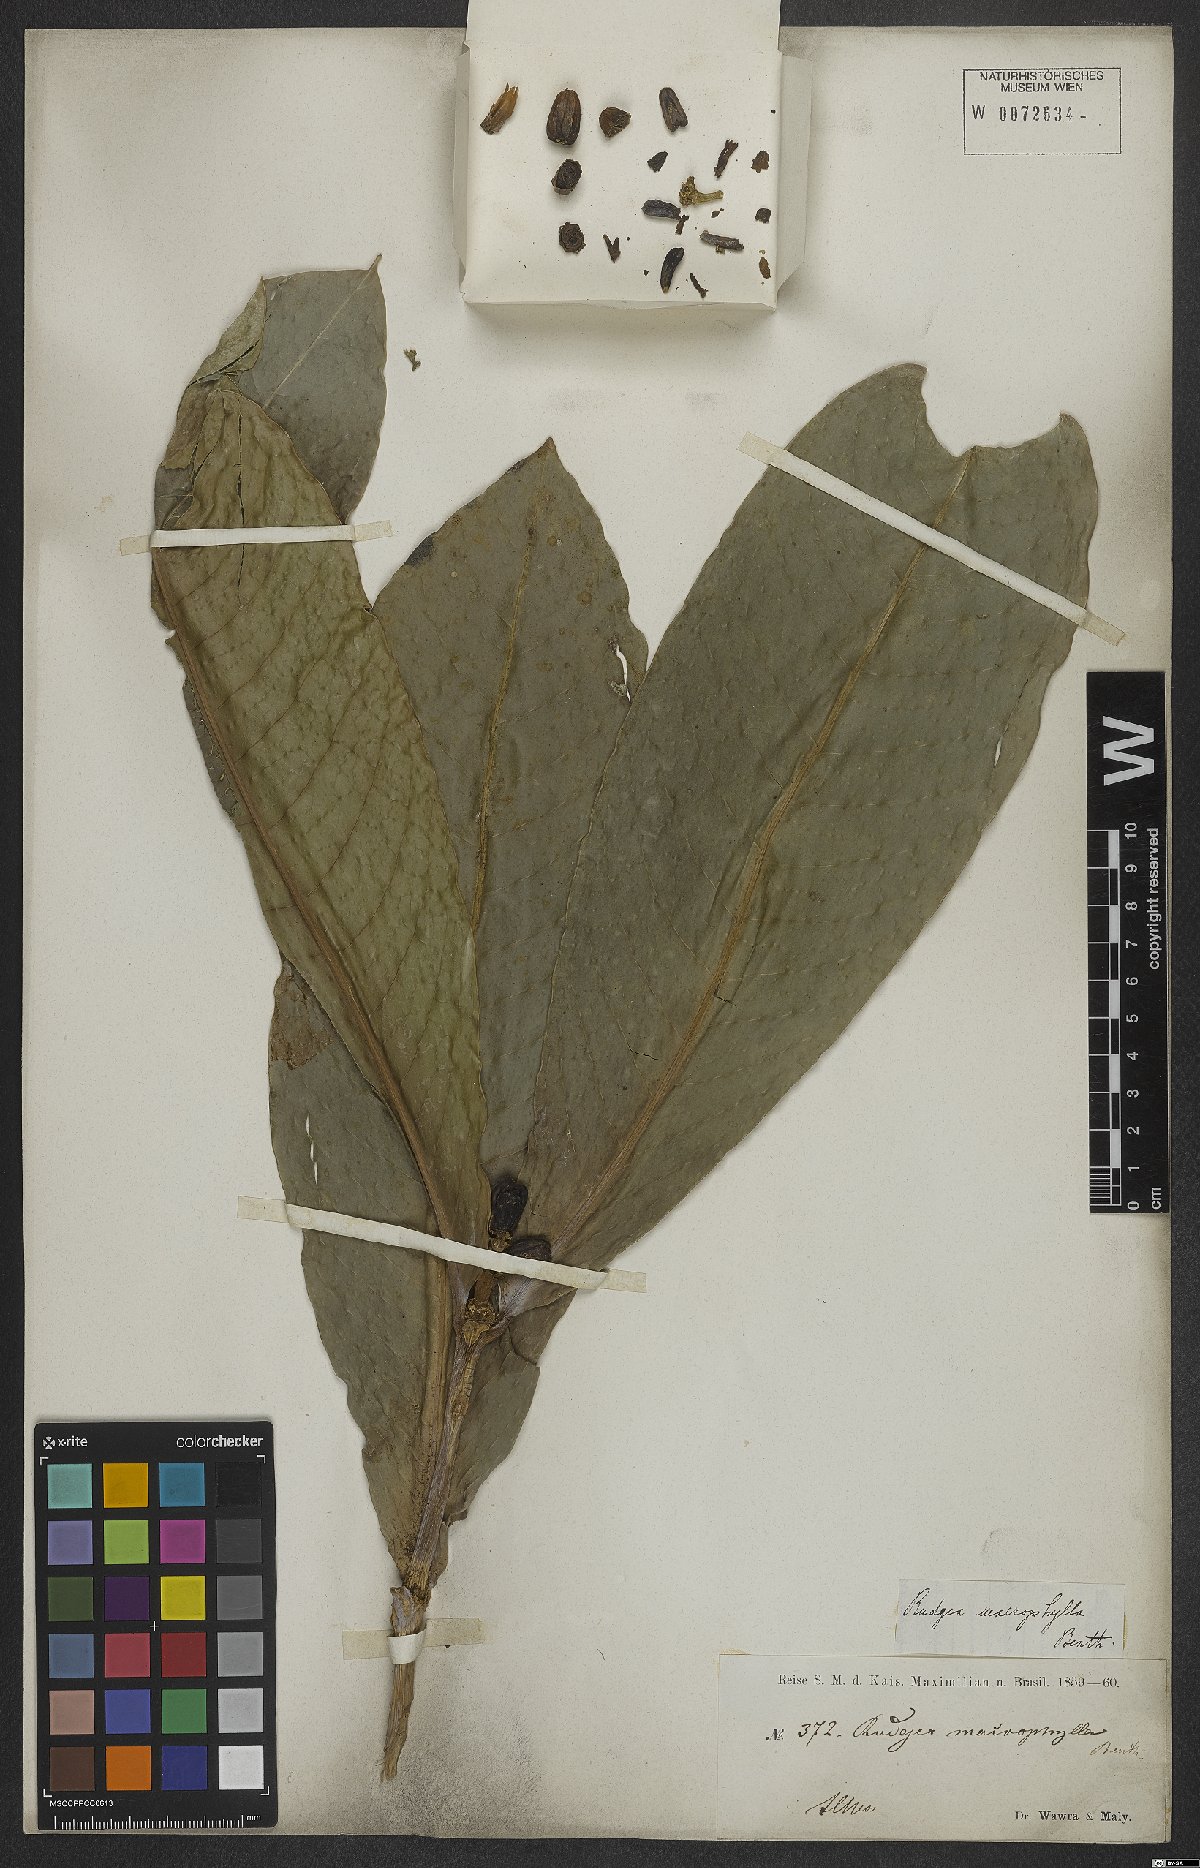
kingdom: Plantae
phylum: Tracheophyta
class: Magnoliopsida
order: Gentianales
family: Rubiaceae
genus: Rudgea
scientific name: Rudgea macrophylla
